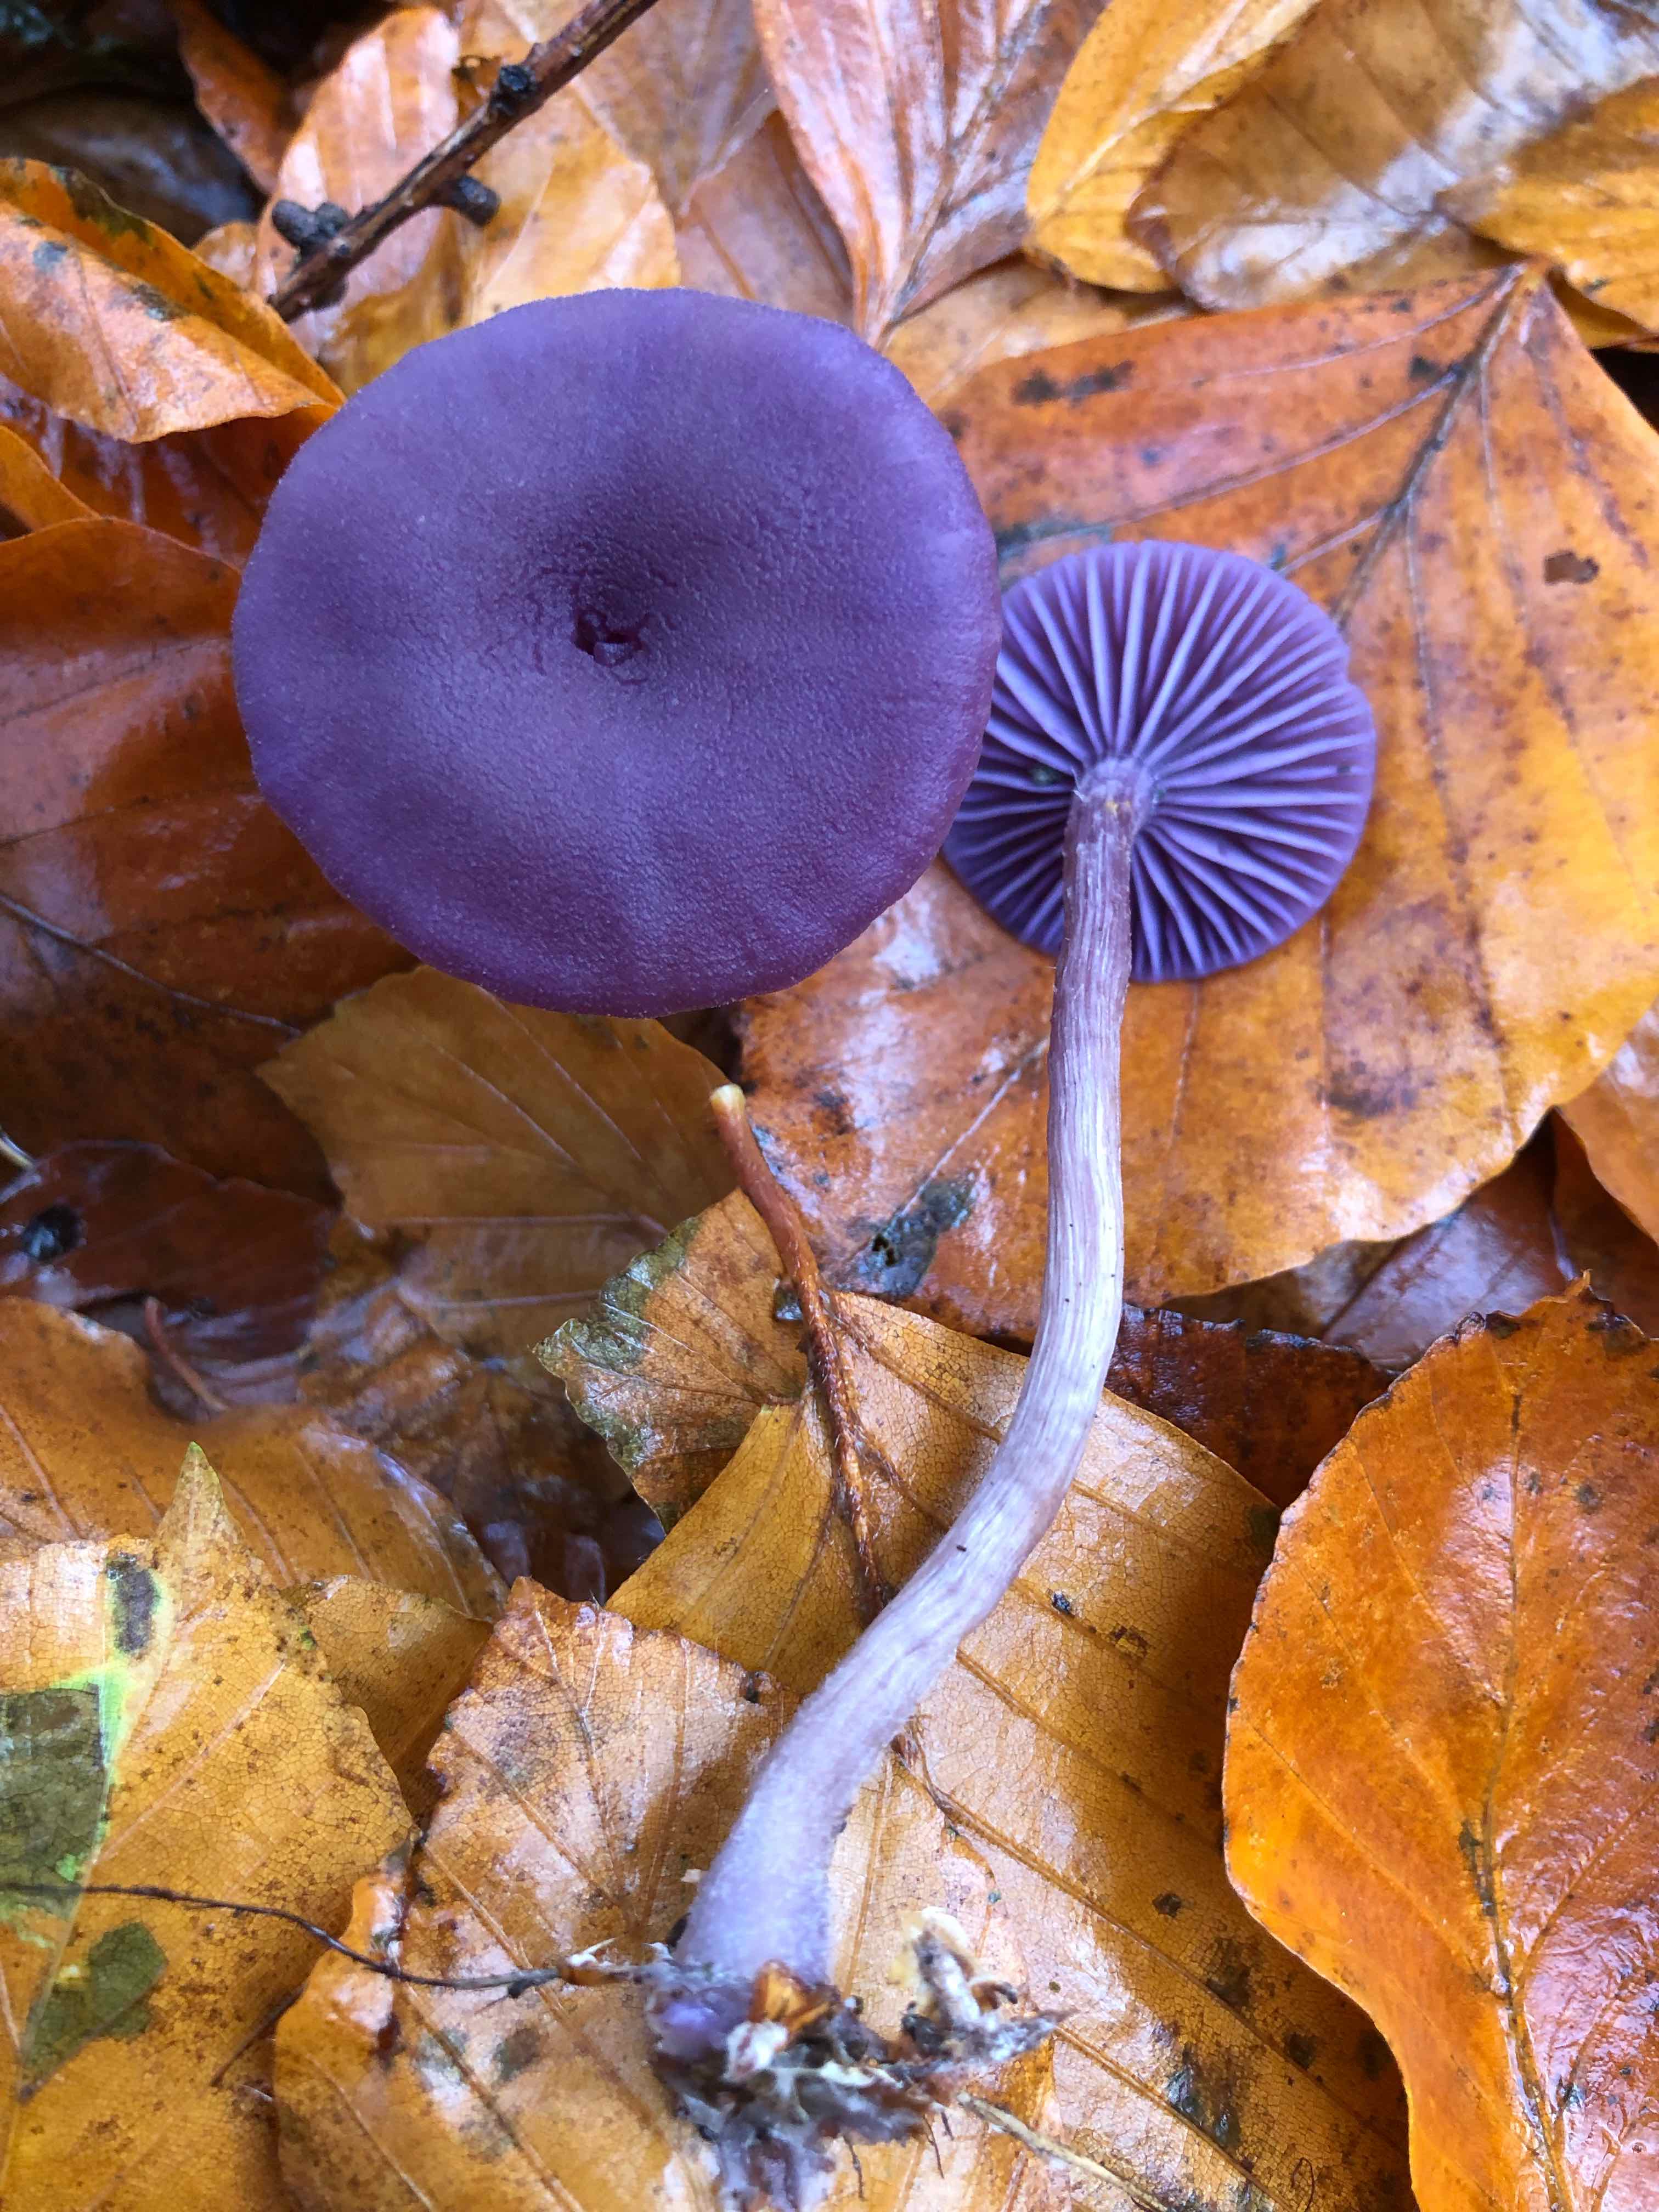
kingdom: Fungi
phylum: Basidiomycota
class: Agaricomycetes
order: Agaricales
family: Hydnangiaceae
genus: Laccaria
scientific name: Laccaria amethystina
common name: violet ametysthat
